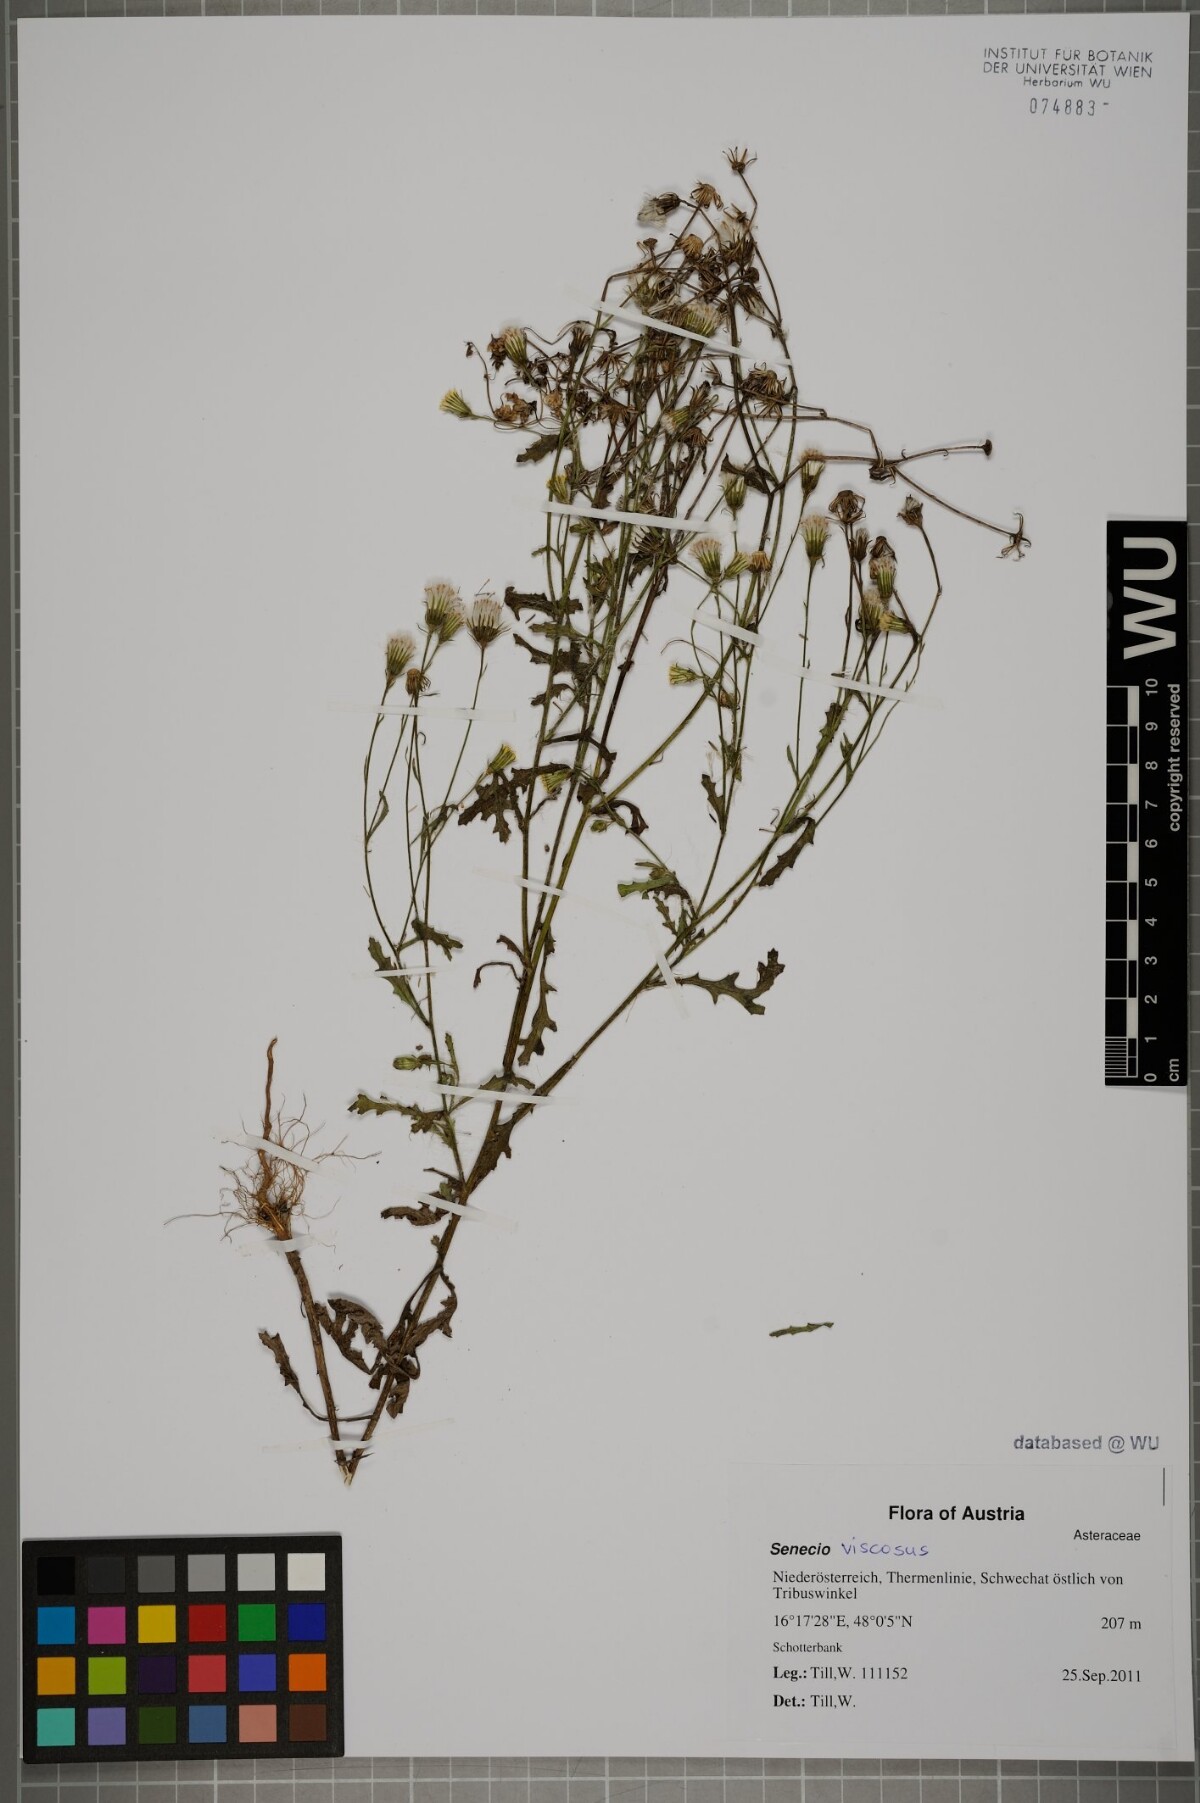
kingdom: Plantae
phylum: Tracheophyta
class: Magnoliopsida
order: Asterales
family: Asteraceae
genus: Senecio
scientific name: Senecio viscosus
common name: Sticky groundsel
